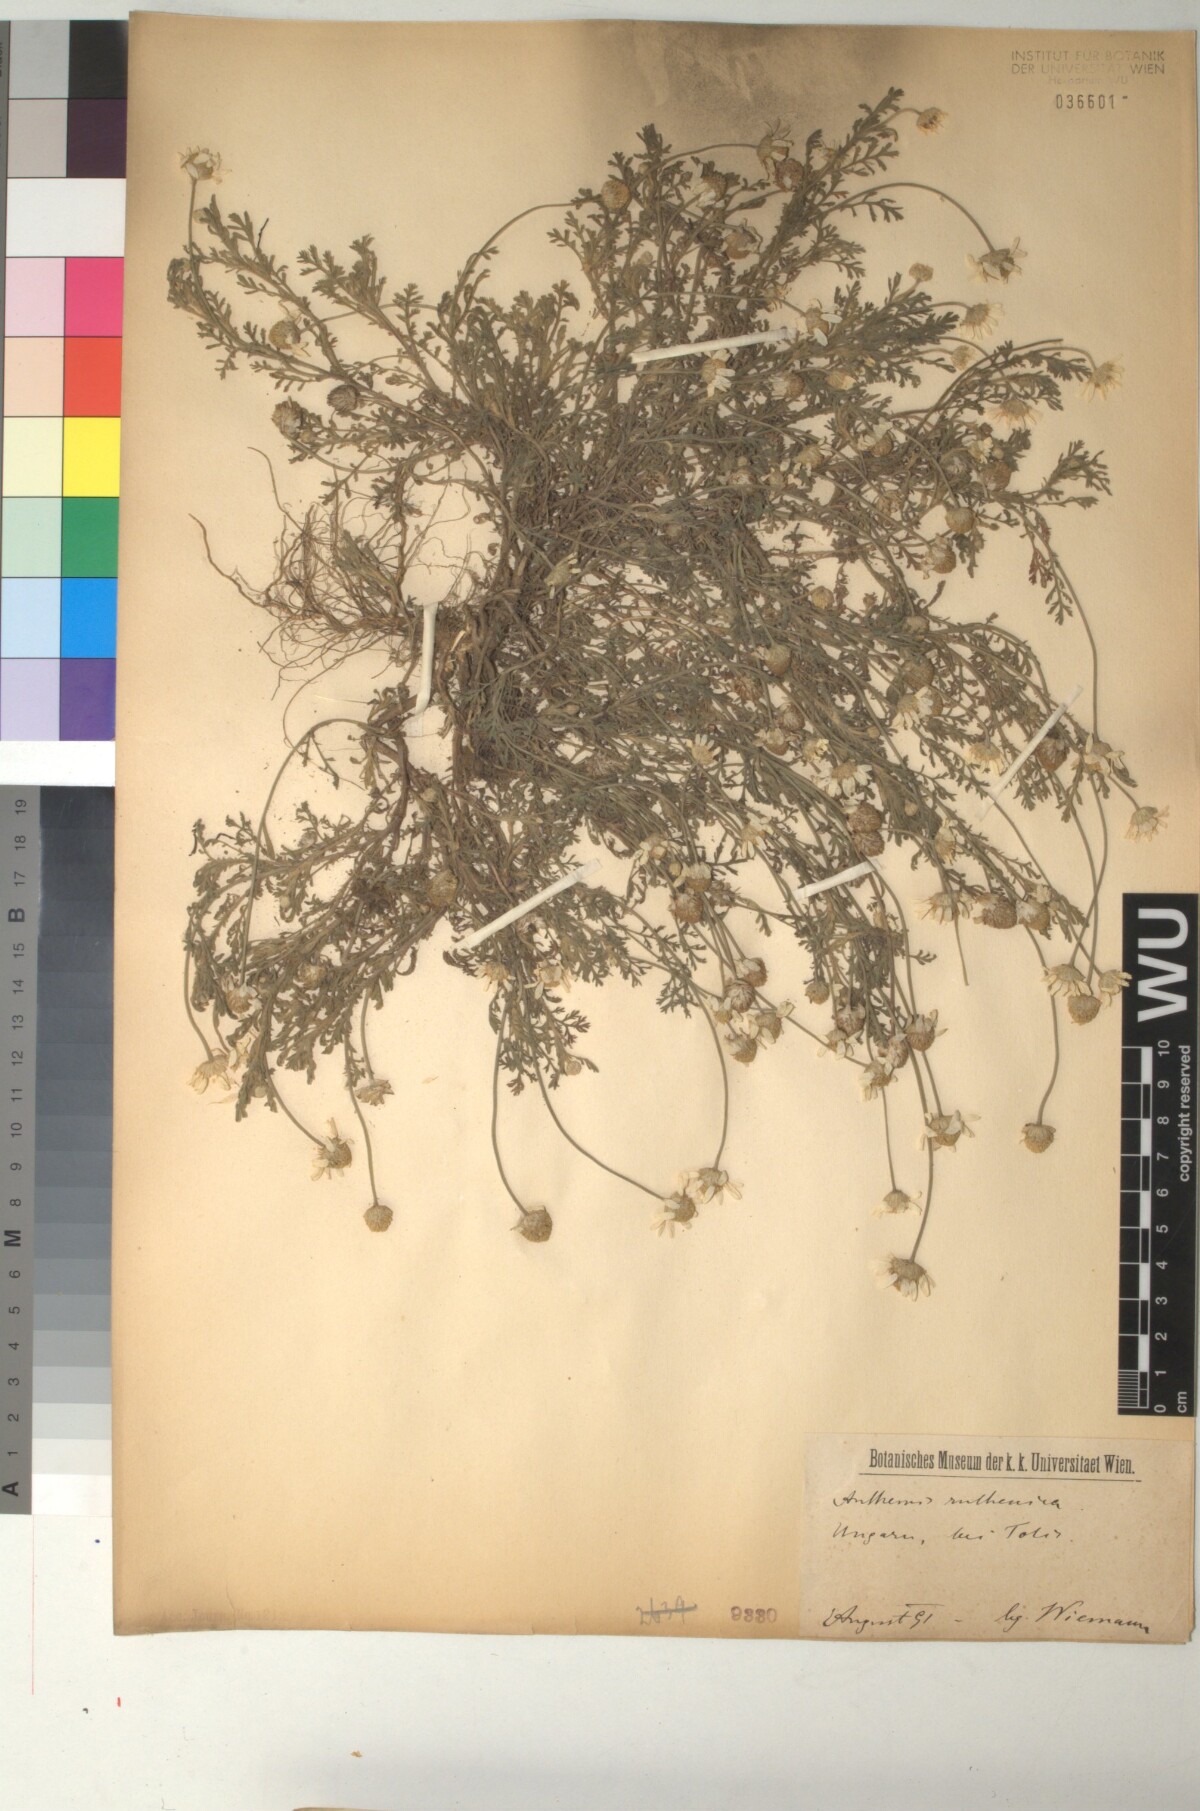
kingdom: Plantae
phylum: Tracheophyta
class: Magnoliopsida
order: Asterales
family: Asteraceae
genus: Anthemis
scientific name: Anthemis ruthenica
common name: Eastern chamomile
